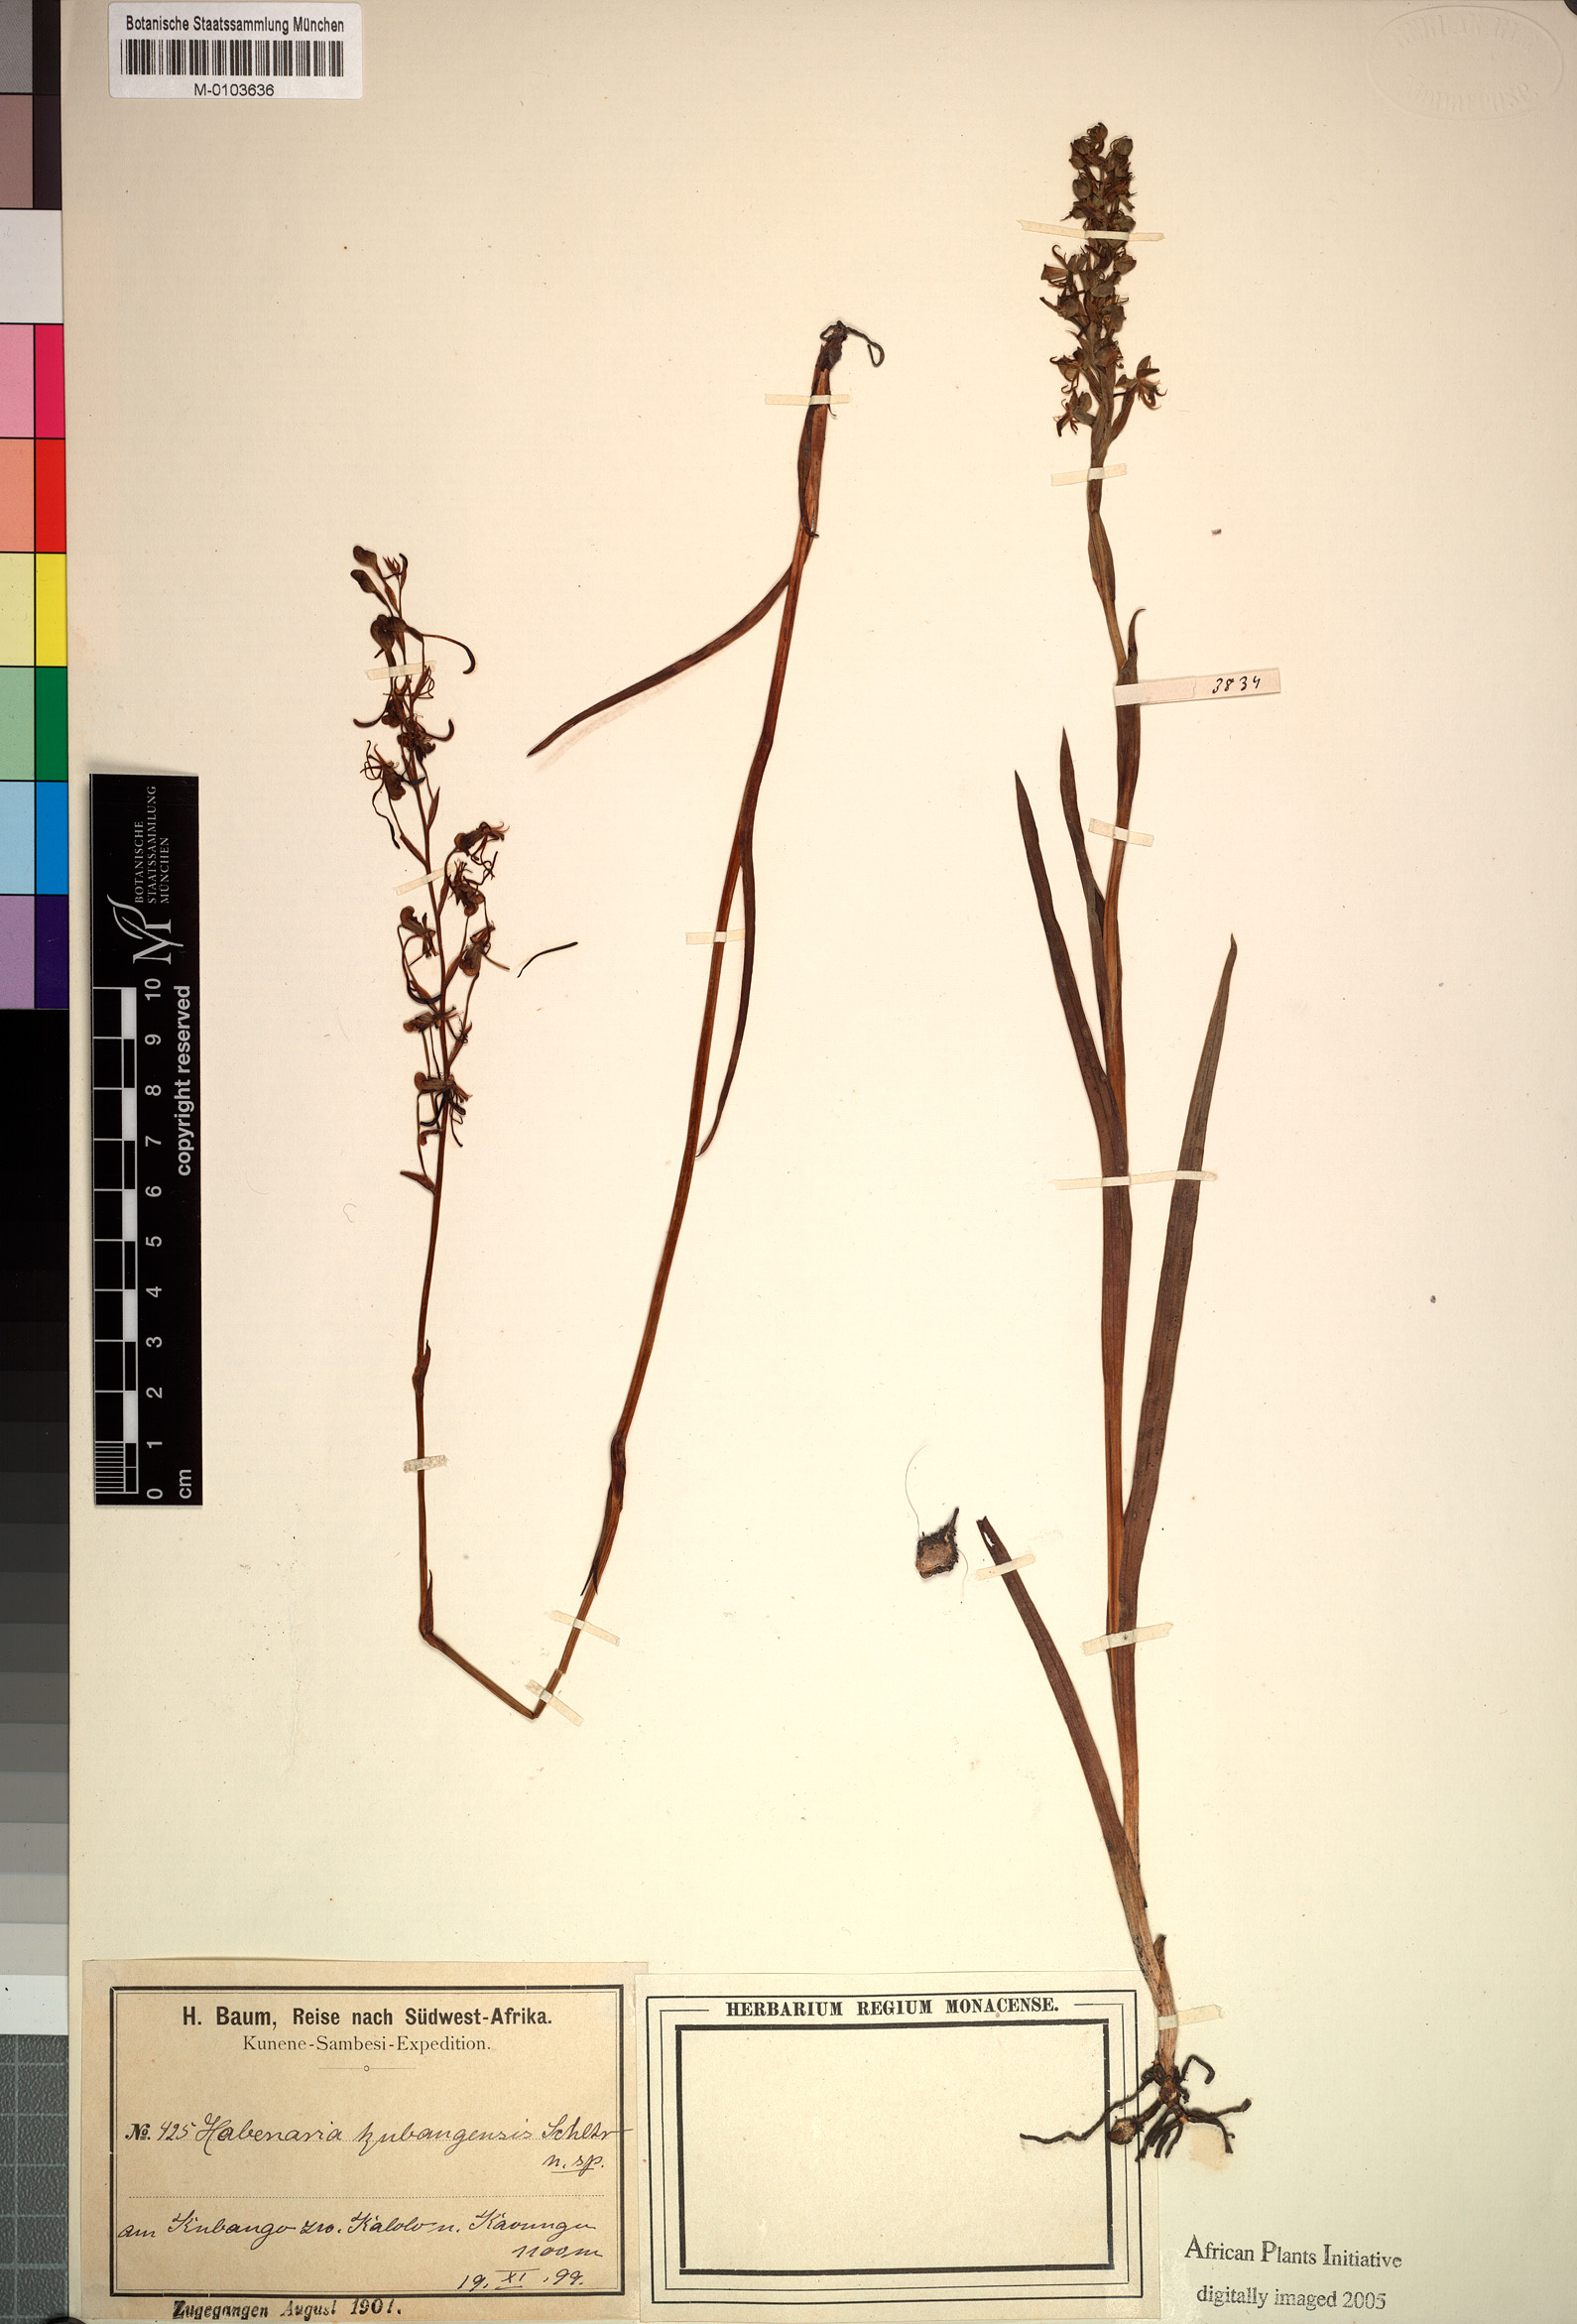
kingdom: Plantae
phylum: Tracheophyta
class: Liliopsida
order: Asparagales
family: Orchidaceae
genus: Habenaria
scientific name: Habenaria huillensis
